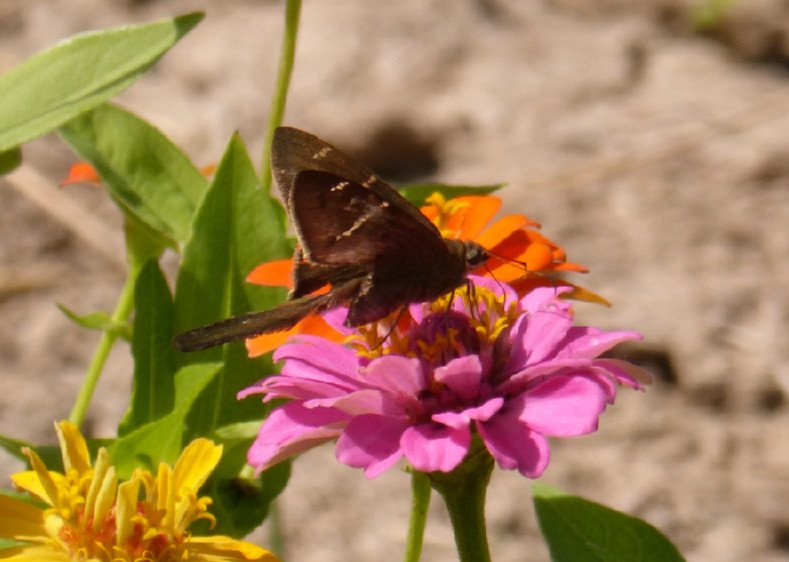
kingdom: Animalia
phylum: Arthropoda
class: Insecta
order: Lepidoptera
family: Hesperiidae
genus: Urbanus
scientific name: Urbanus procne
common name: Brown Longtail
